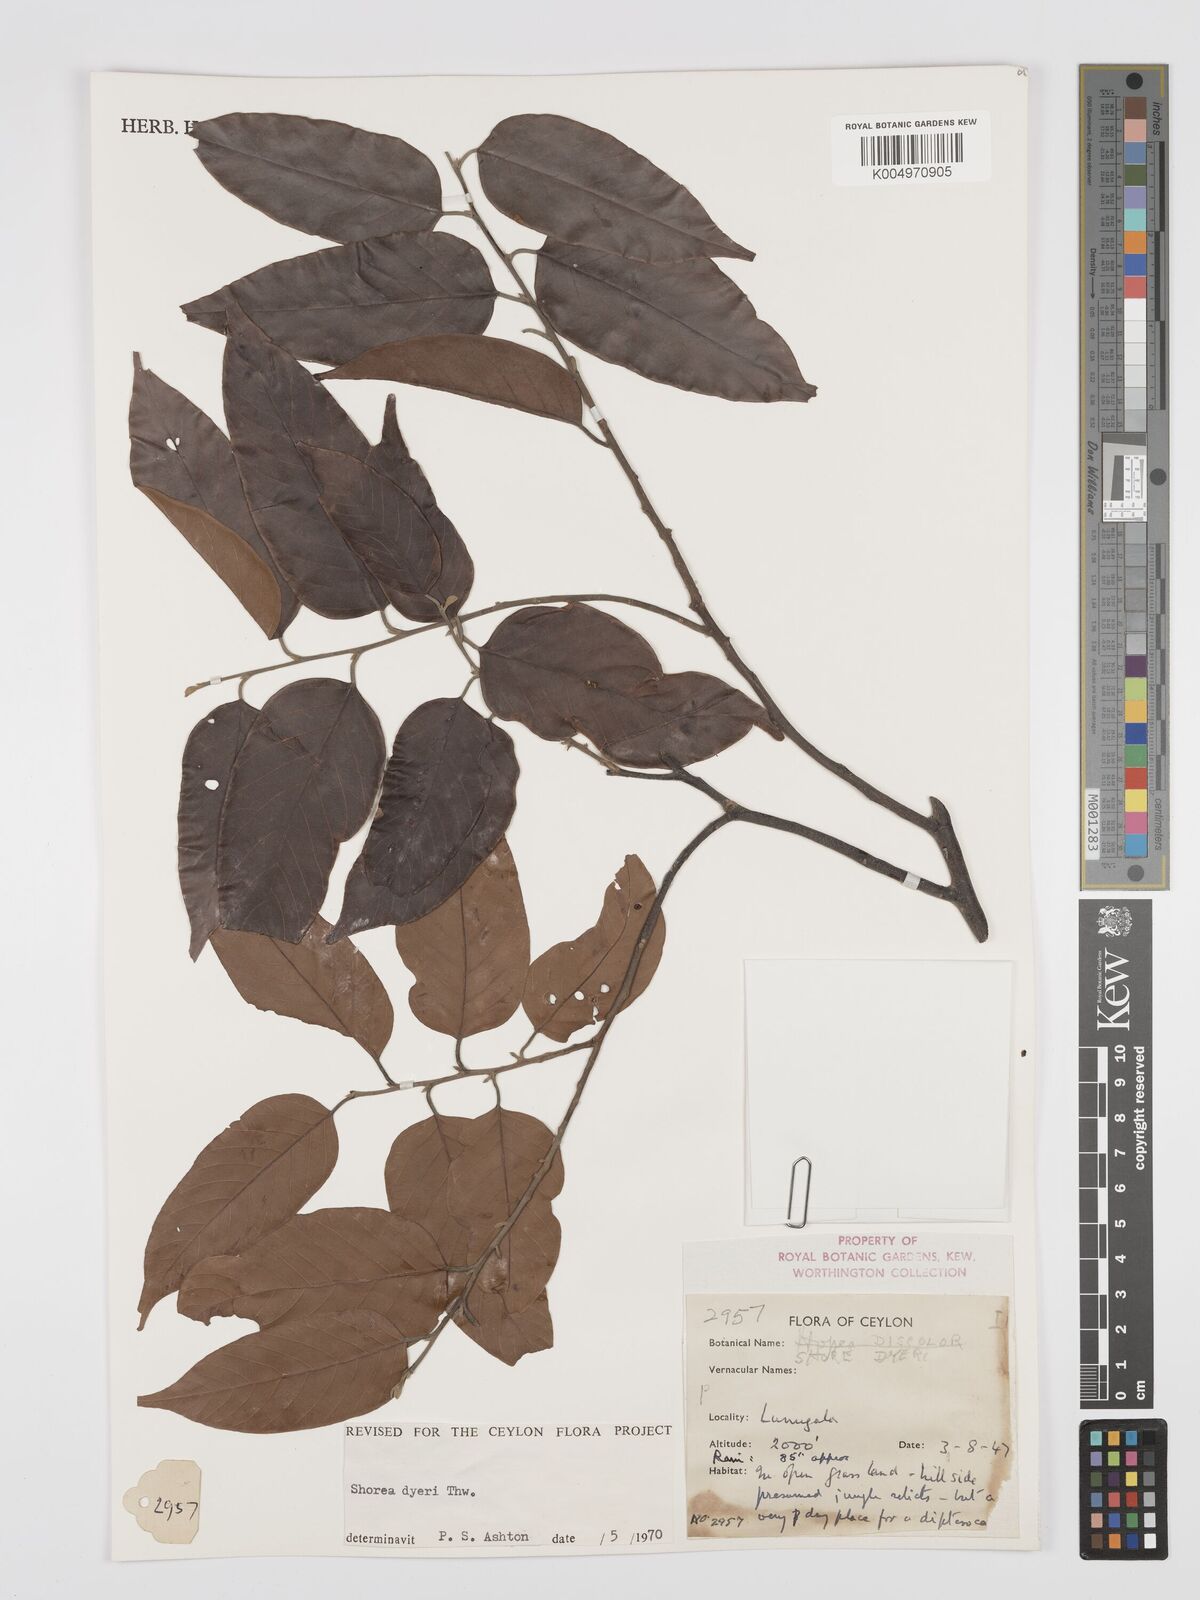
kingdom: Plantae
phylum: Tracheophyta
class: Magnoliopsida
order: Malvales
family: Dipterocarpaceae
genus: Shorea
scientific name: Shorea dyeri
